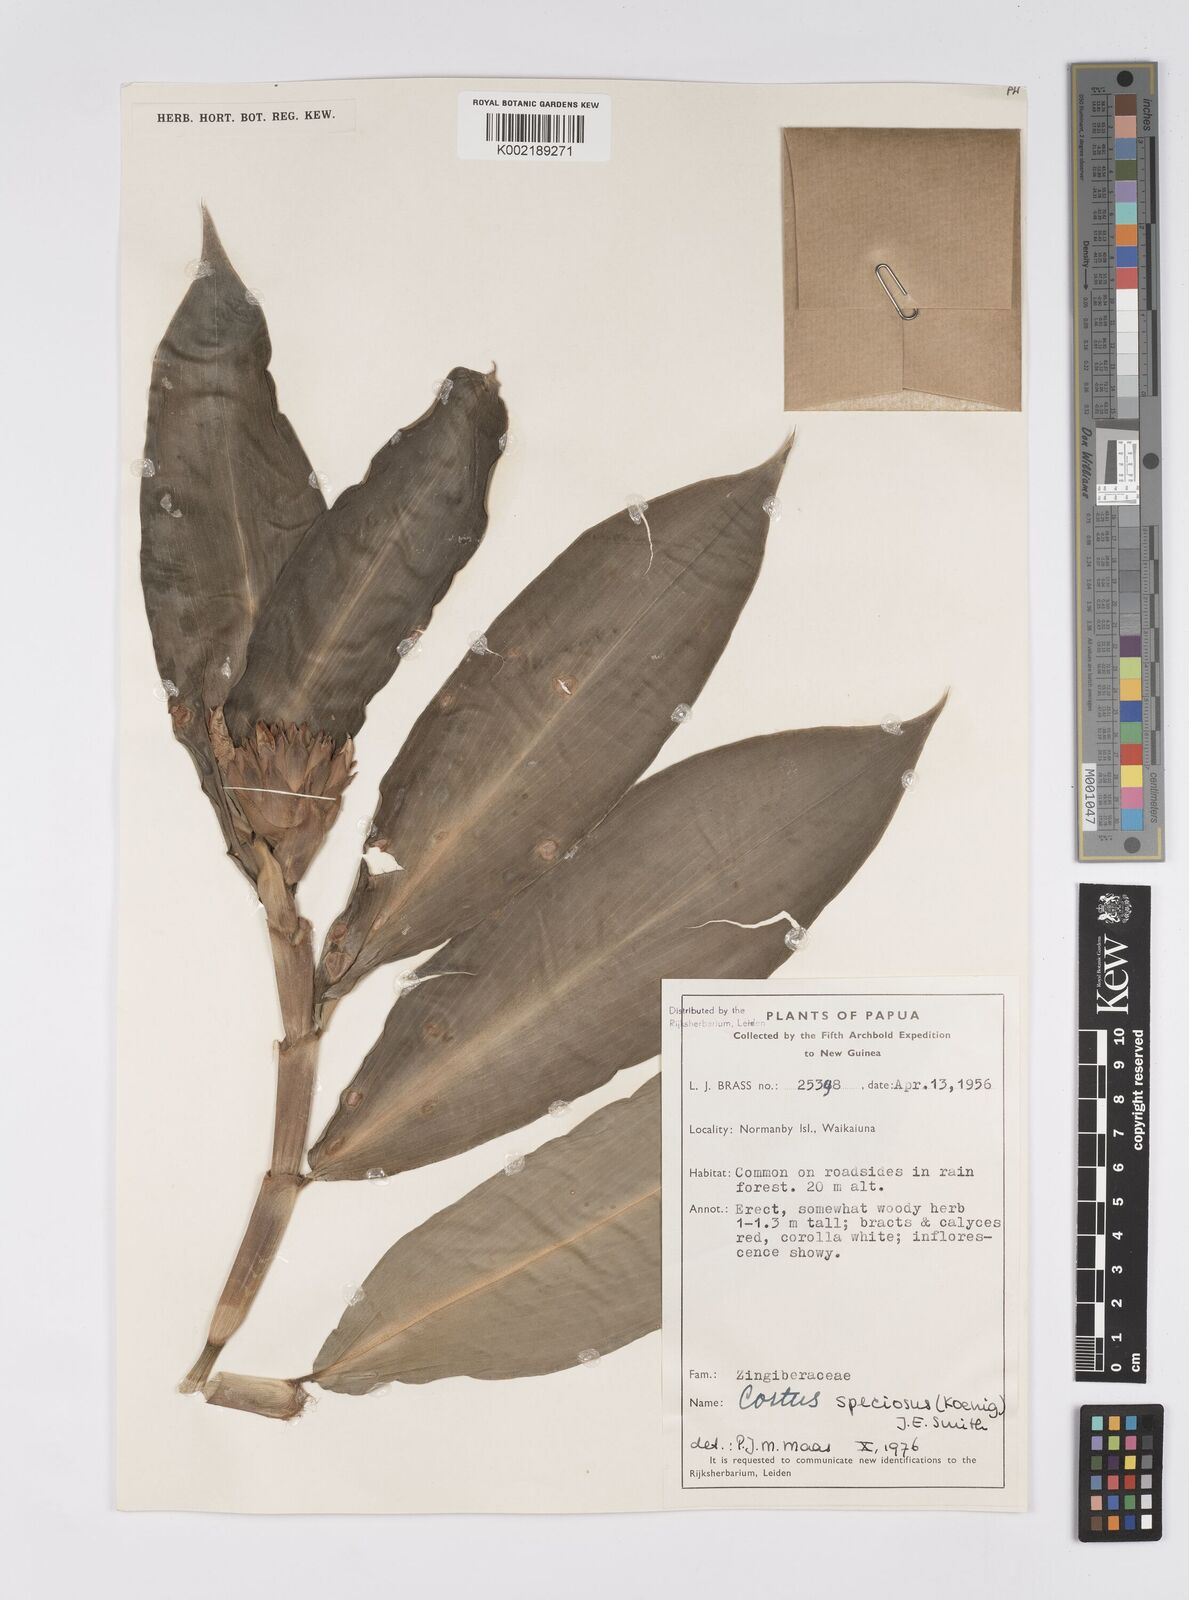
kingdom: Plantae
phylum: Tracheophyta
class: Liliopsida
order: Zingiberales
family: Costaceae
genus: Hellenia
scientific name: Hellenia speciosa
